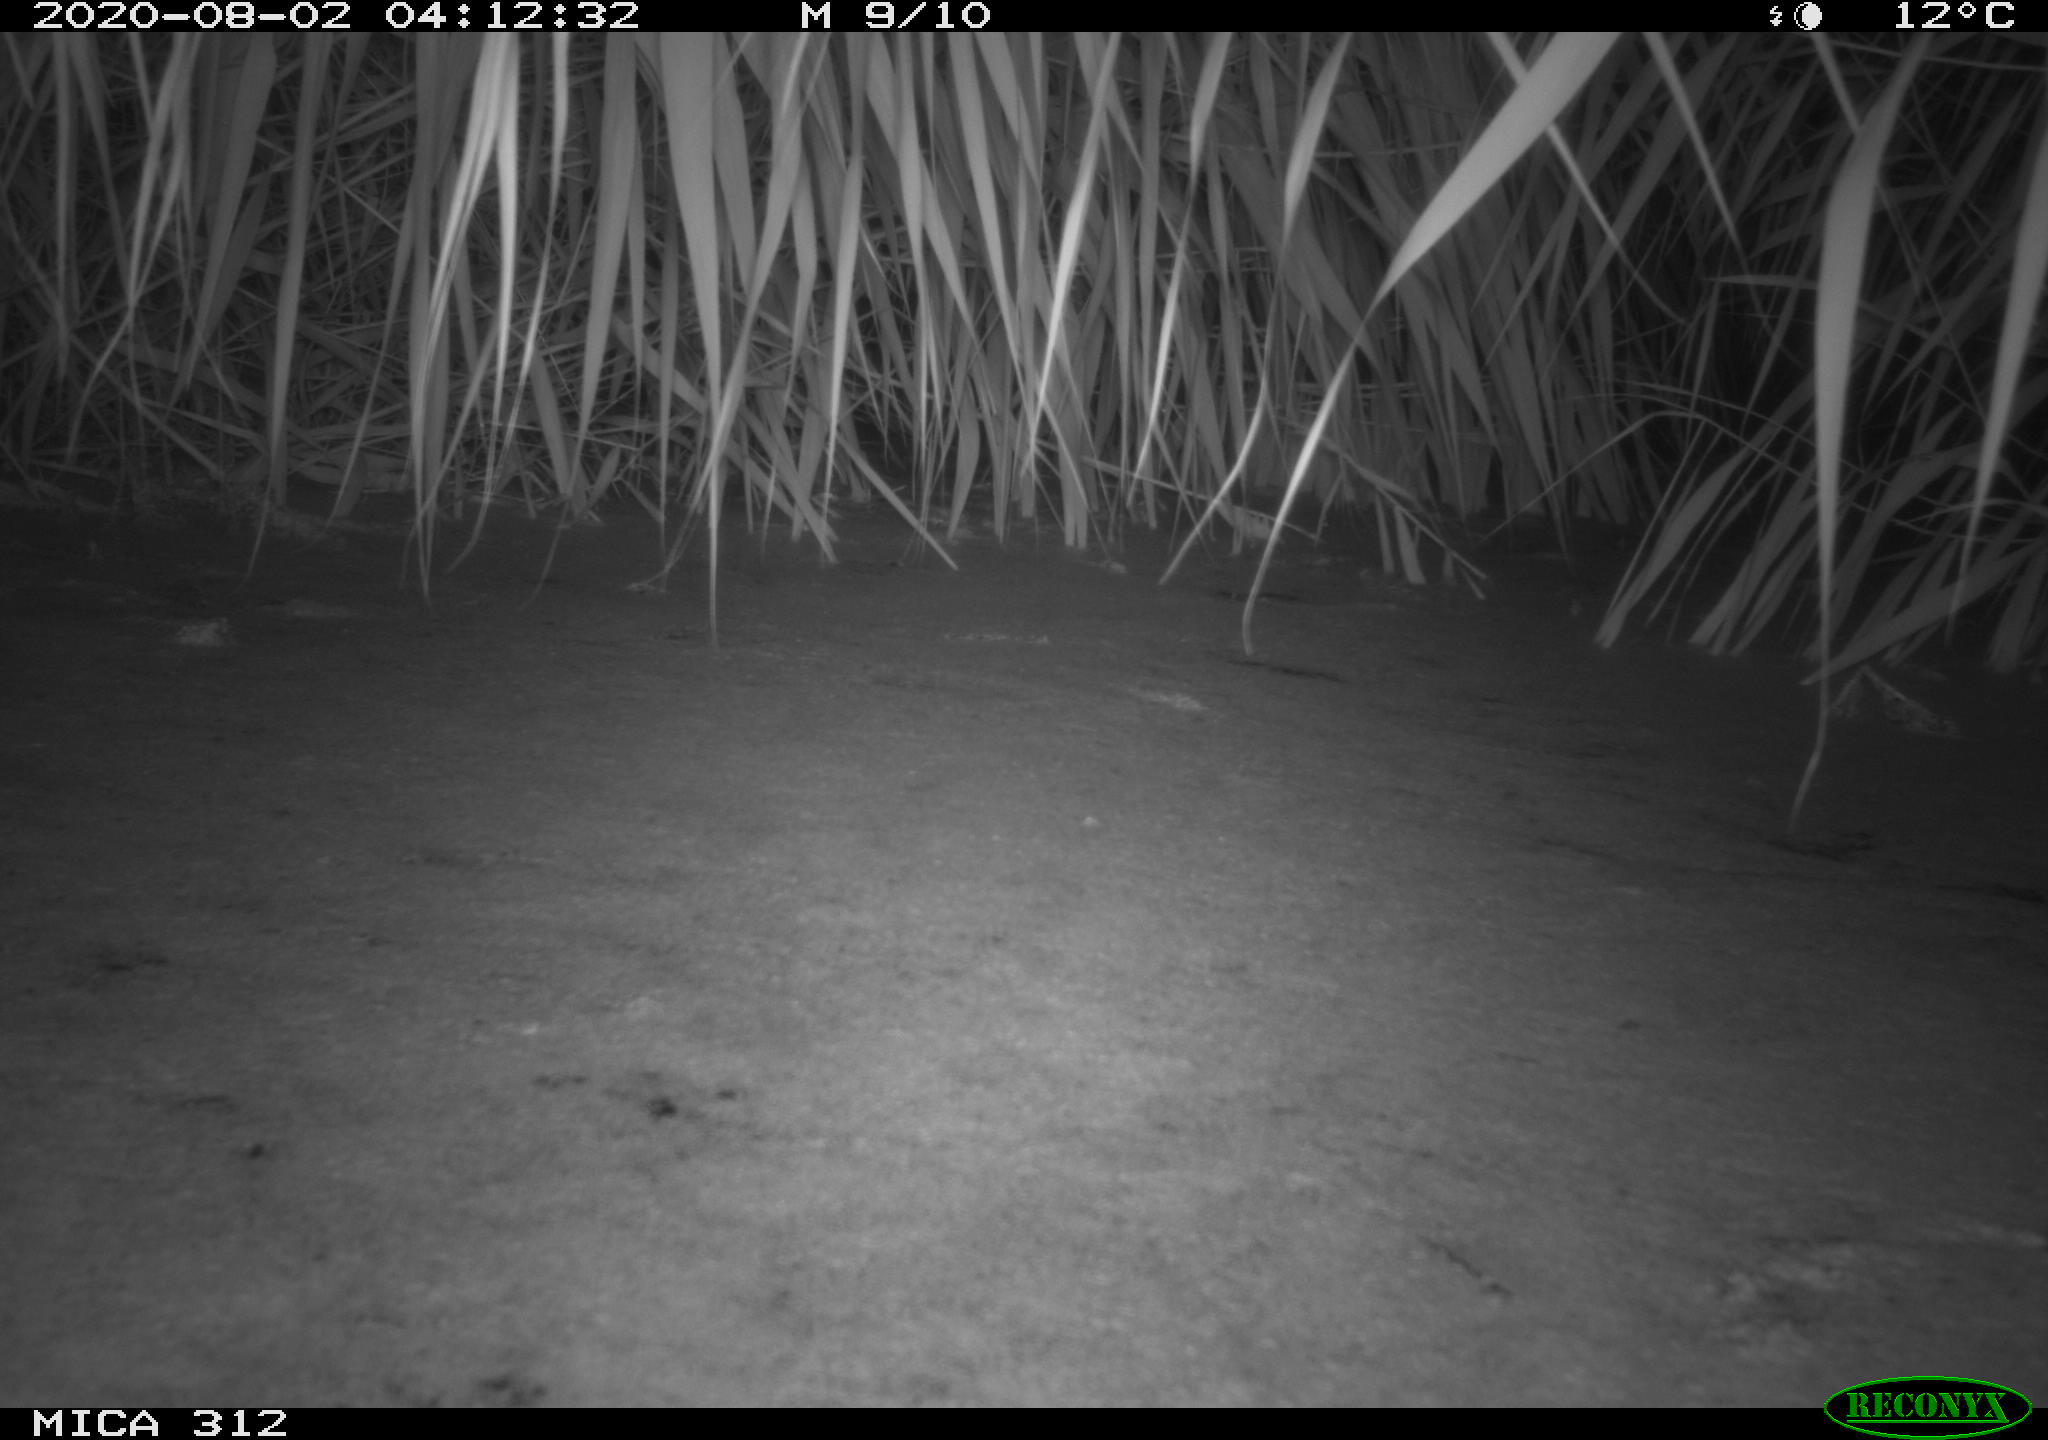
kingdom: Animalia
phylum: Chordata
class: Mammalia
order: Rodentia
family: Muridae
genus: Rattus
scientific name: Rattus norvegicus
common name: Brown rat
